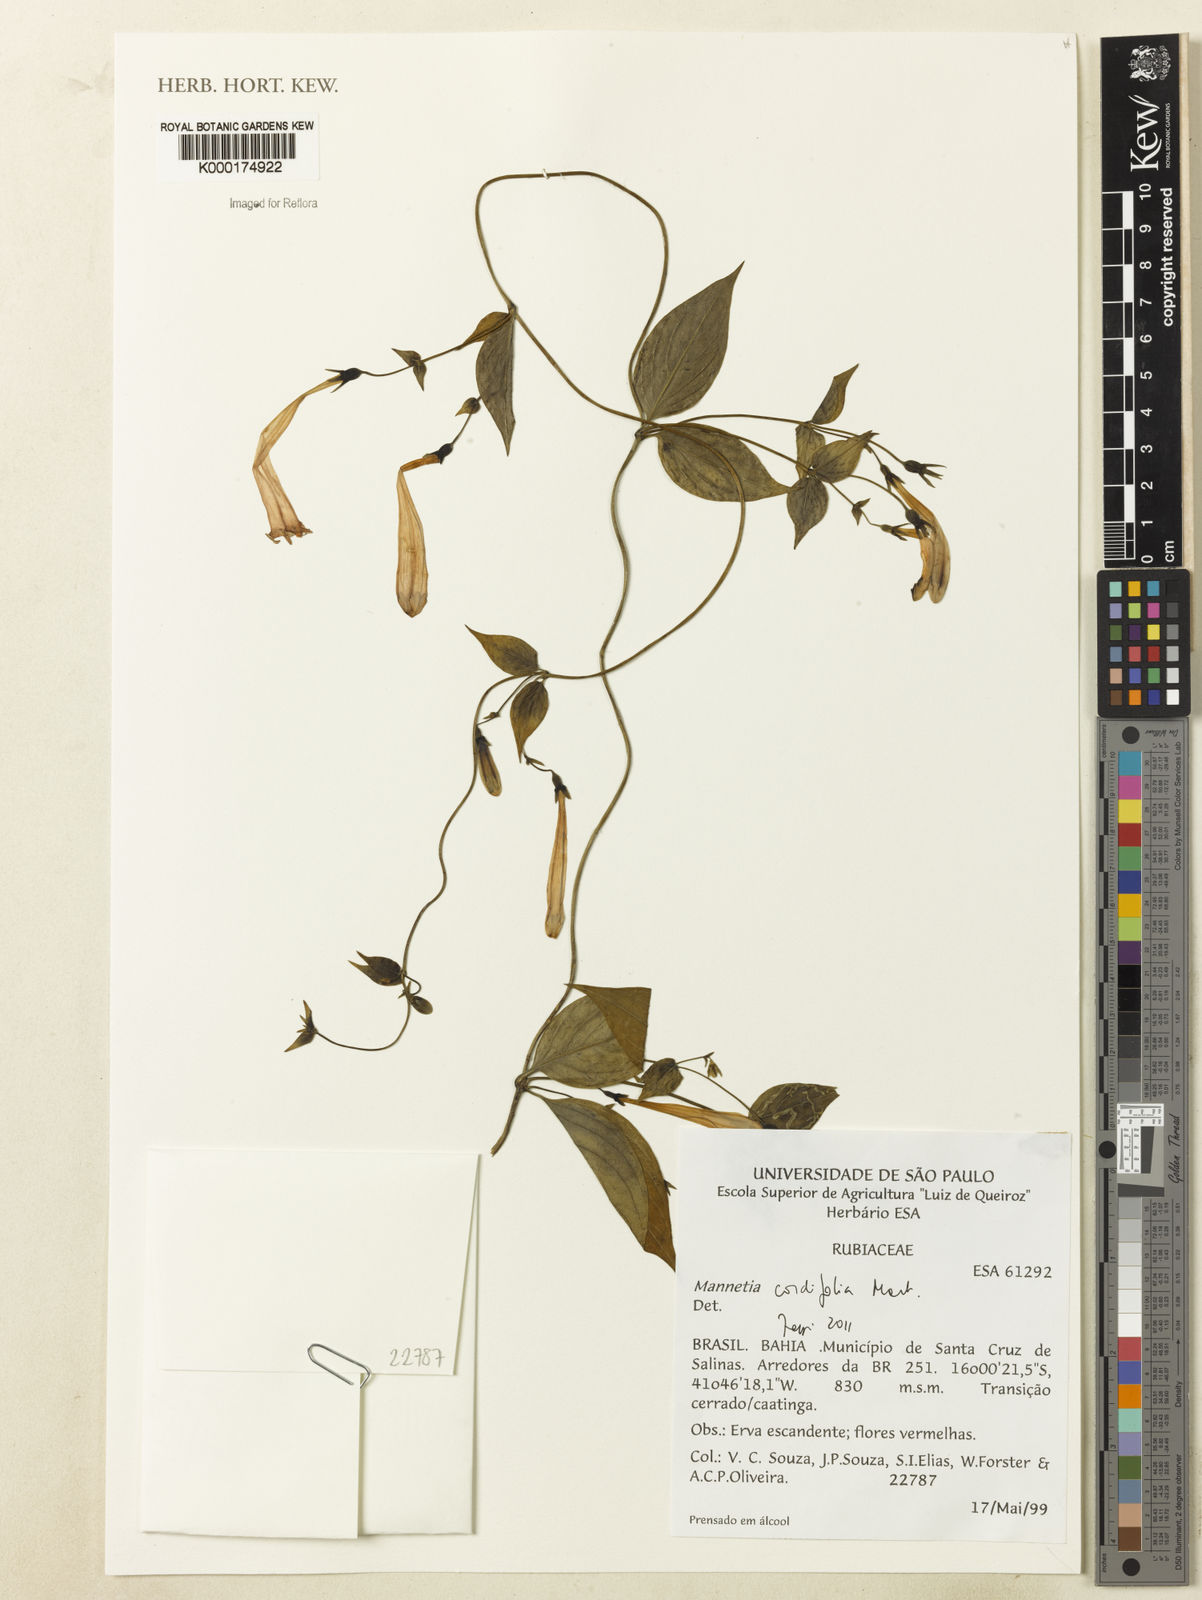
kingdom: Plantae
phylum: Tracheophyta
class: Magnoliopsida
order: Gentianales
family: Rubiaceae
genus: Manettia
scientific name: Manettia cordifolia
